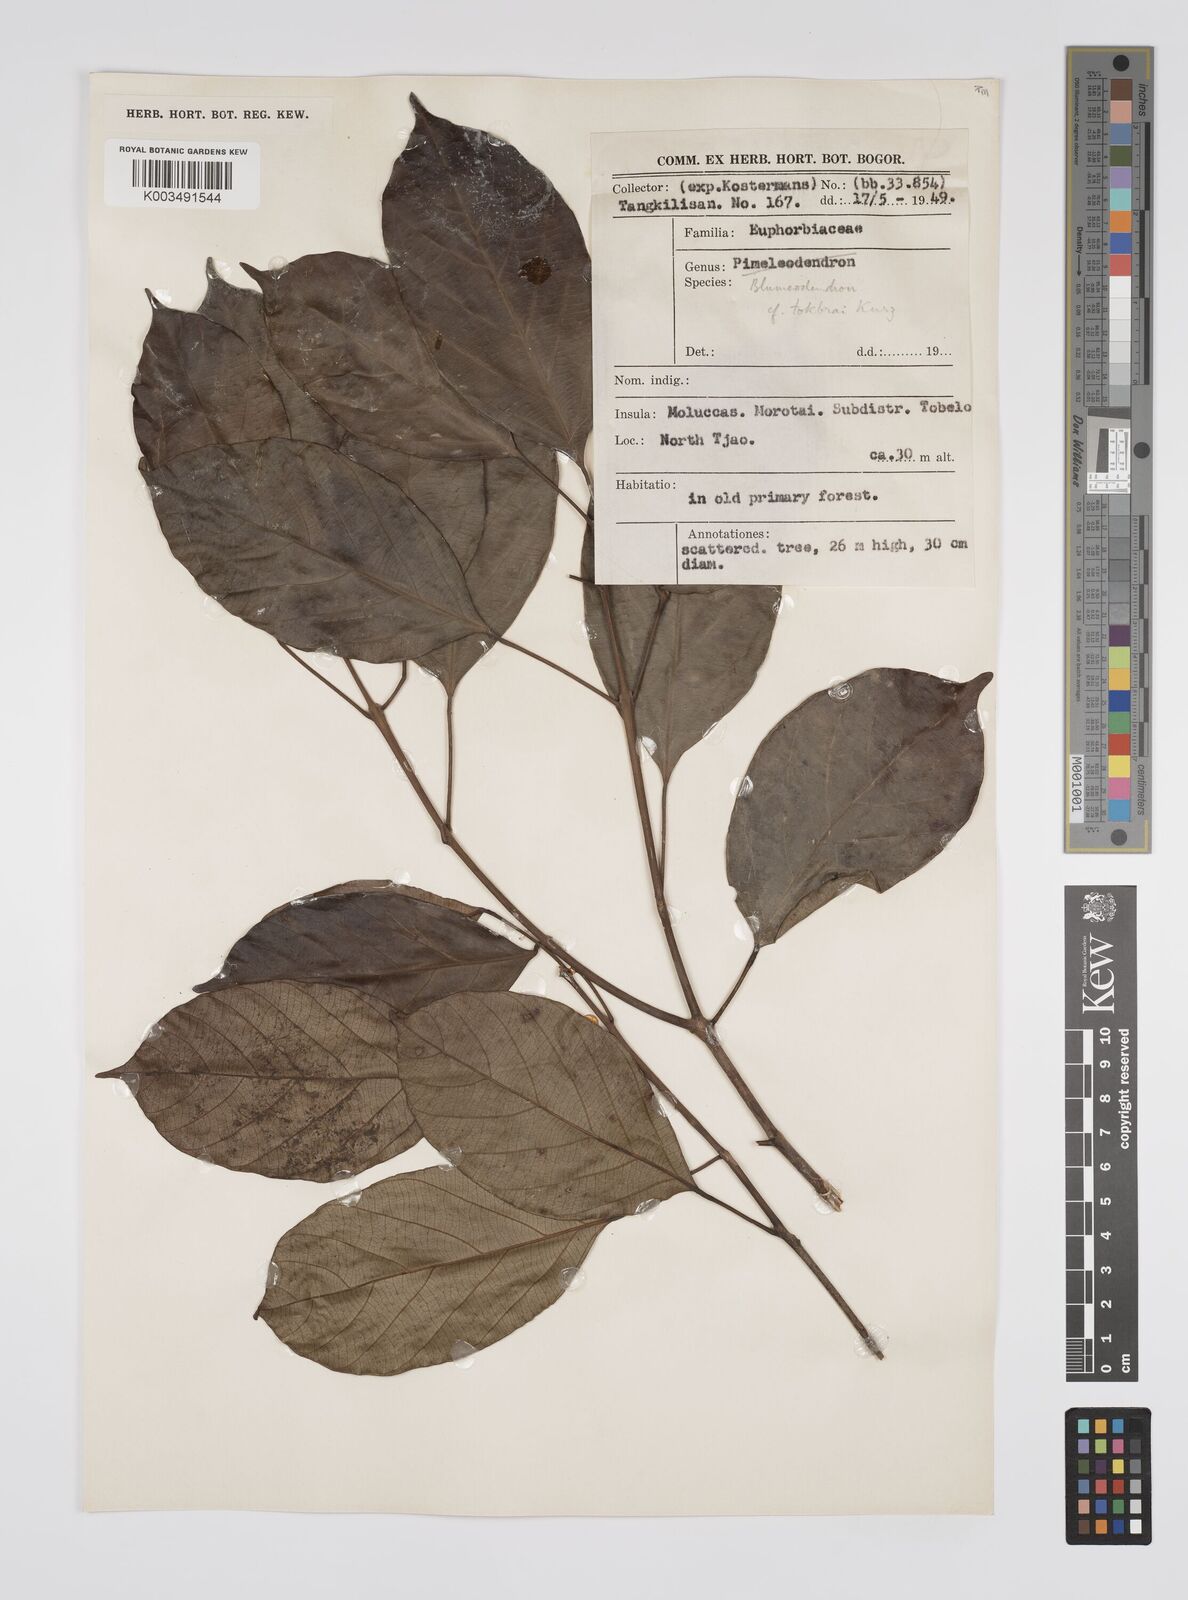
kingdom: Plantae
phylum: Tracheophyta
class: Magnoliopsida
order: Malpighiales
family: Euphorbiaceae
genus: Blumeodendron
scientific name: Blumeodendron tokbrai
